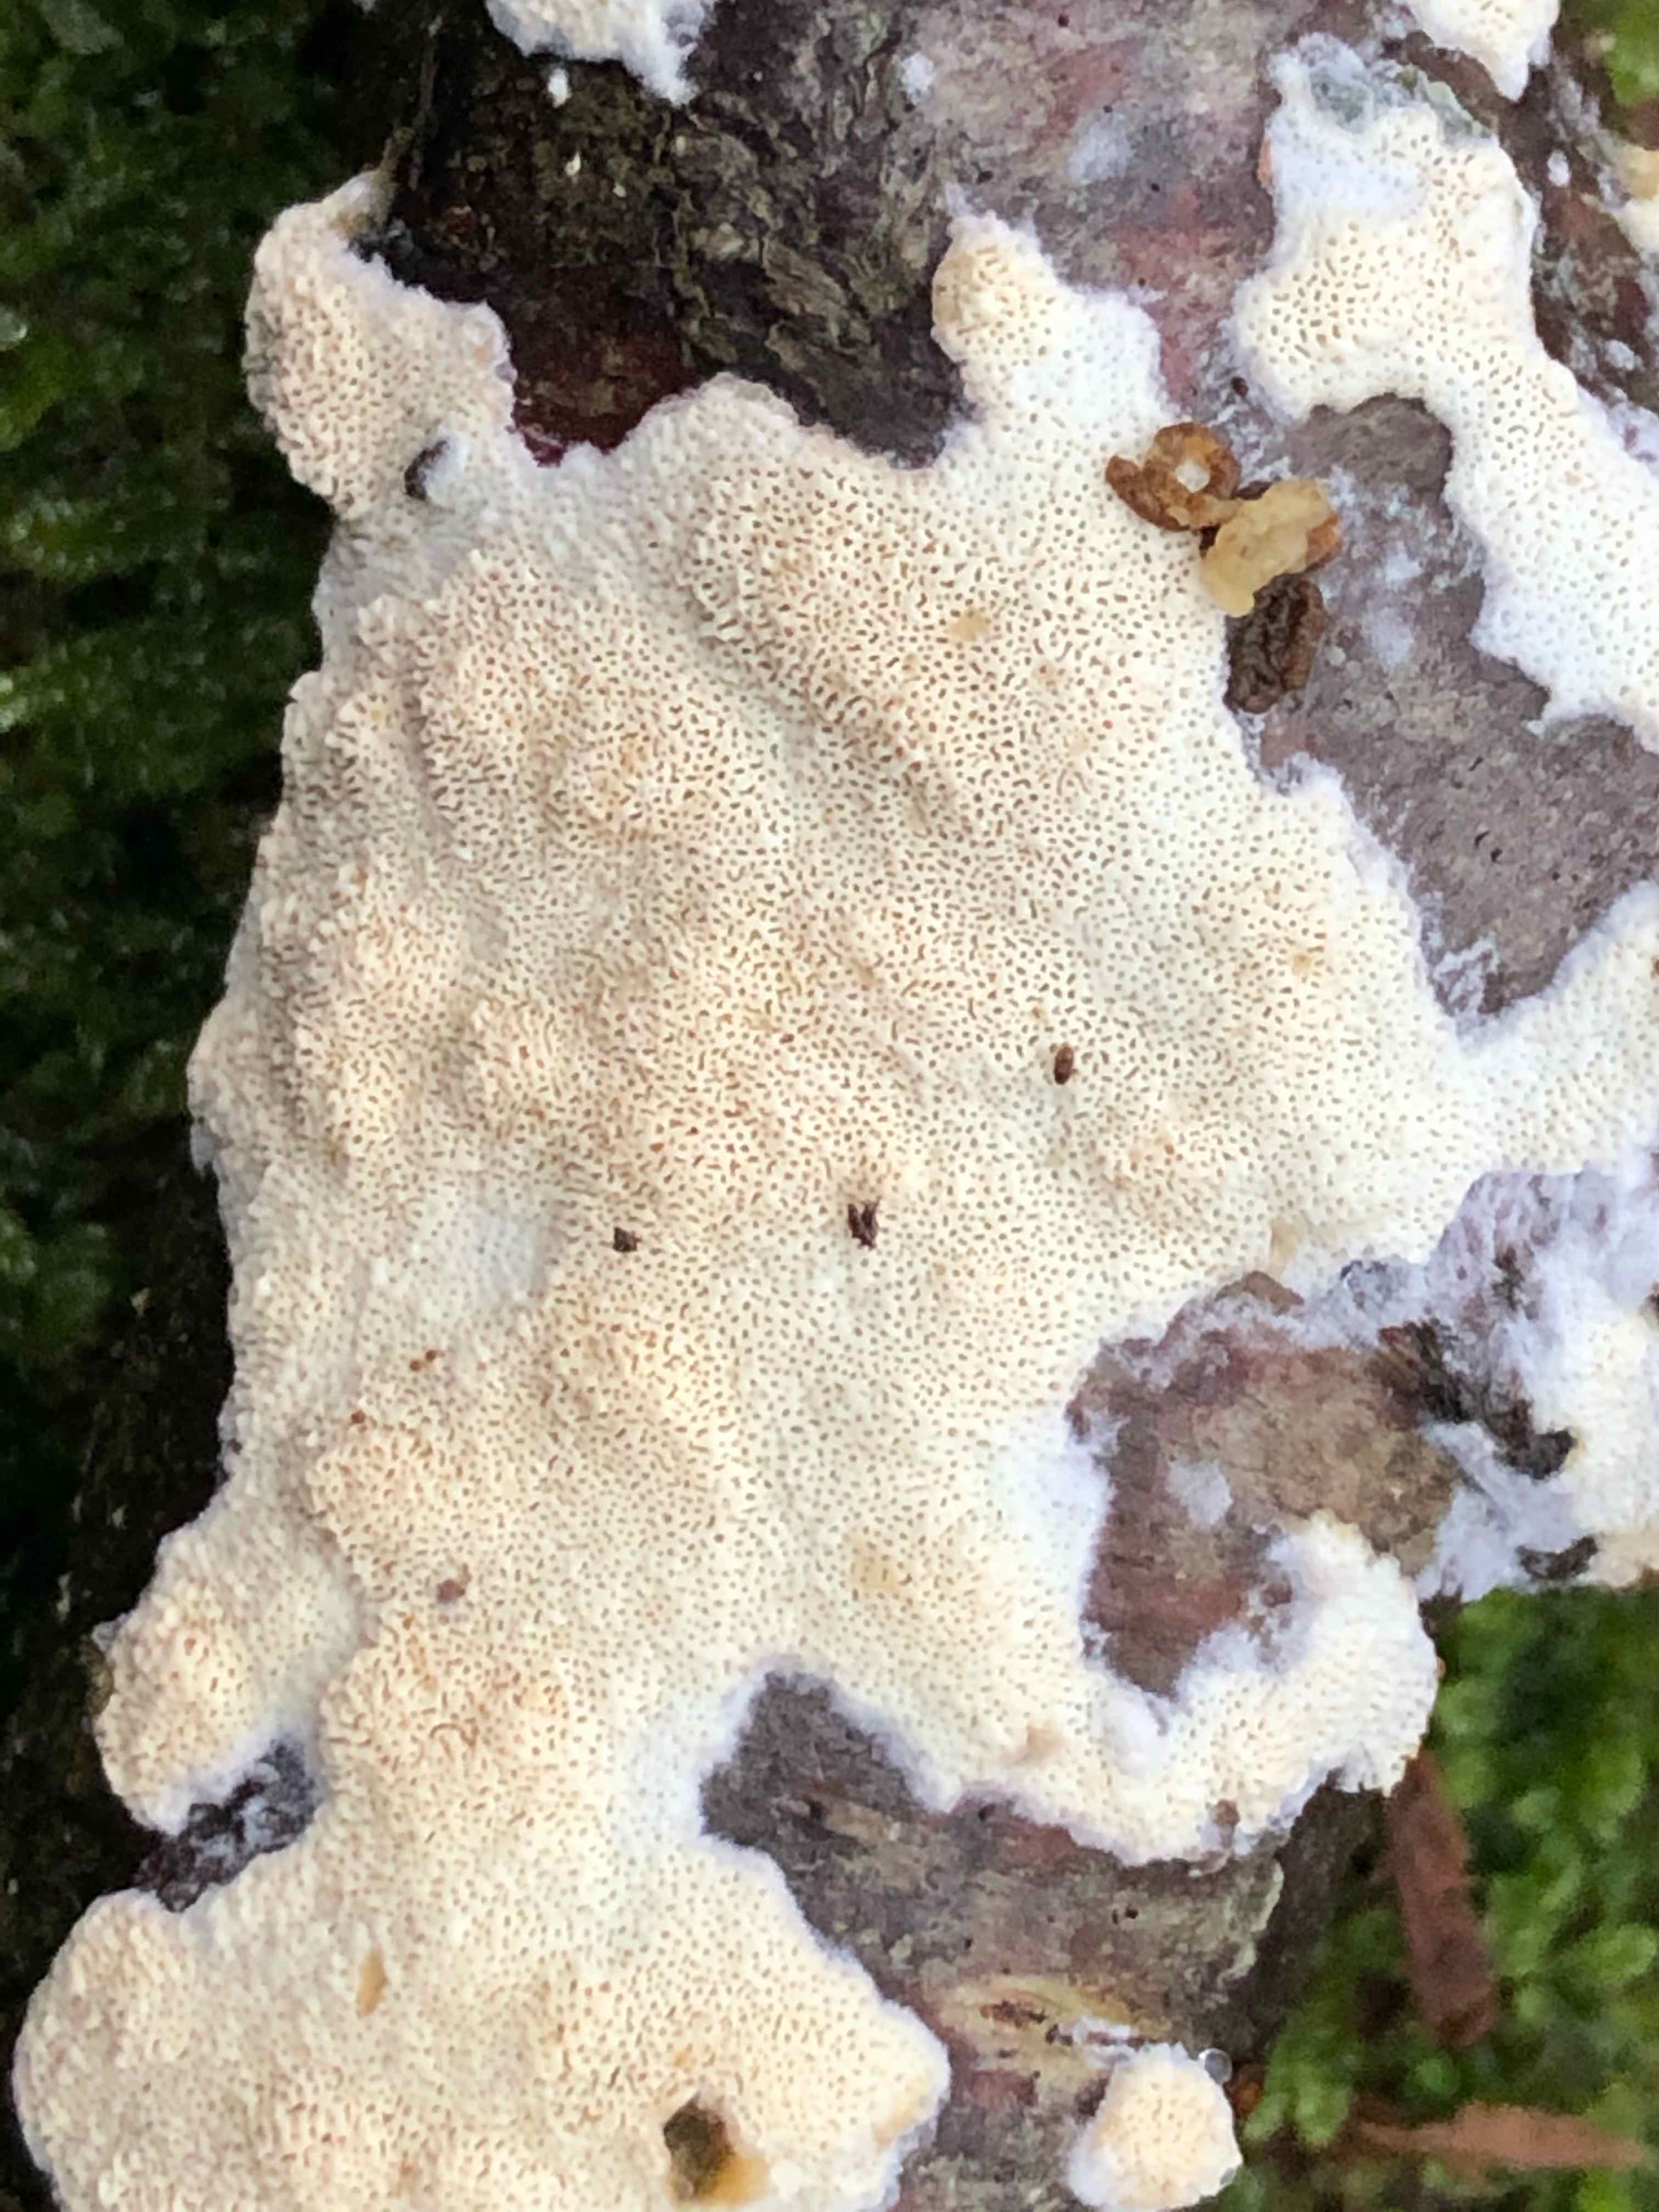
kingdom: Fungi
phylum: Basidiomycota
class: Agaricomycetes
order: Hymenochaetales
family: Schizoporaceae
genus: Xylodon
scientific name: Xylodon subtropicus
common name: labyrint-tandsvamp
